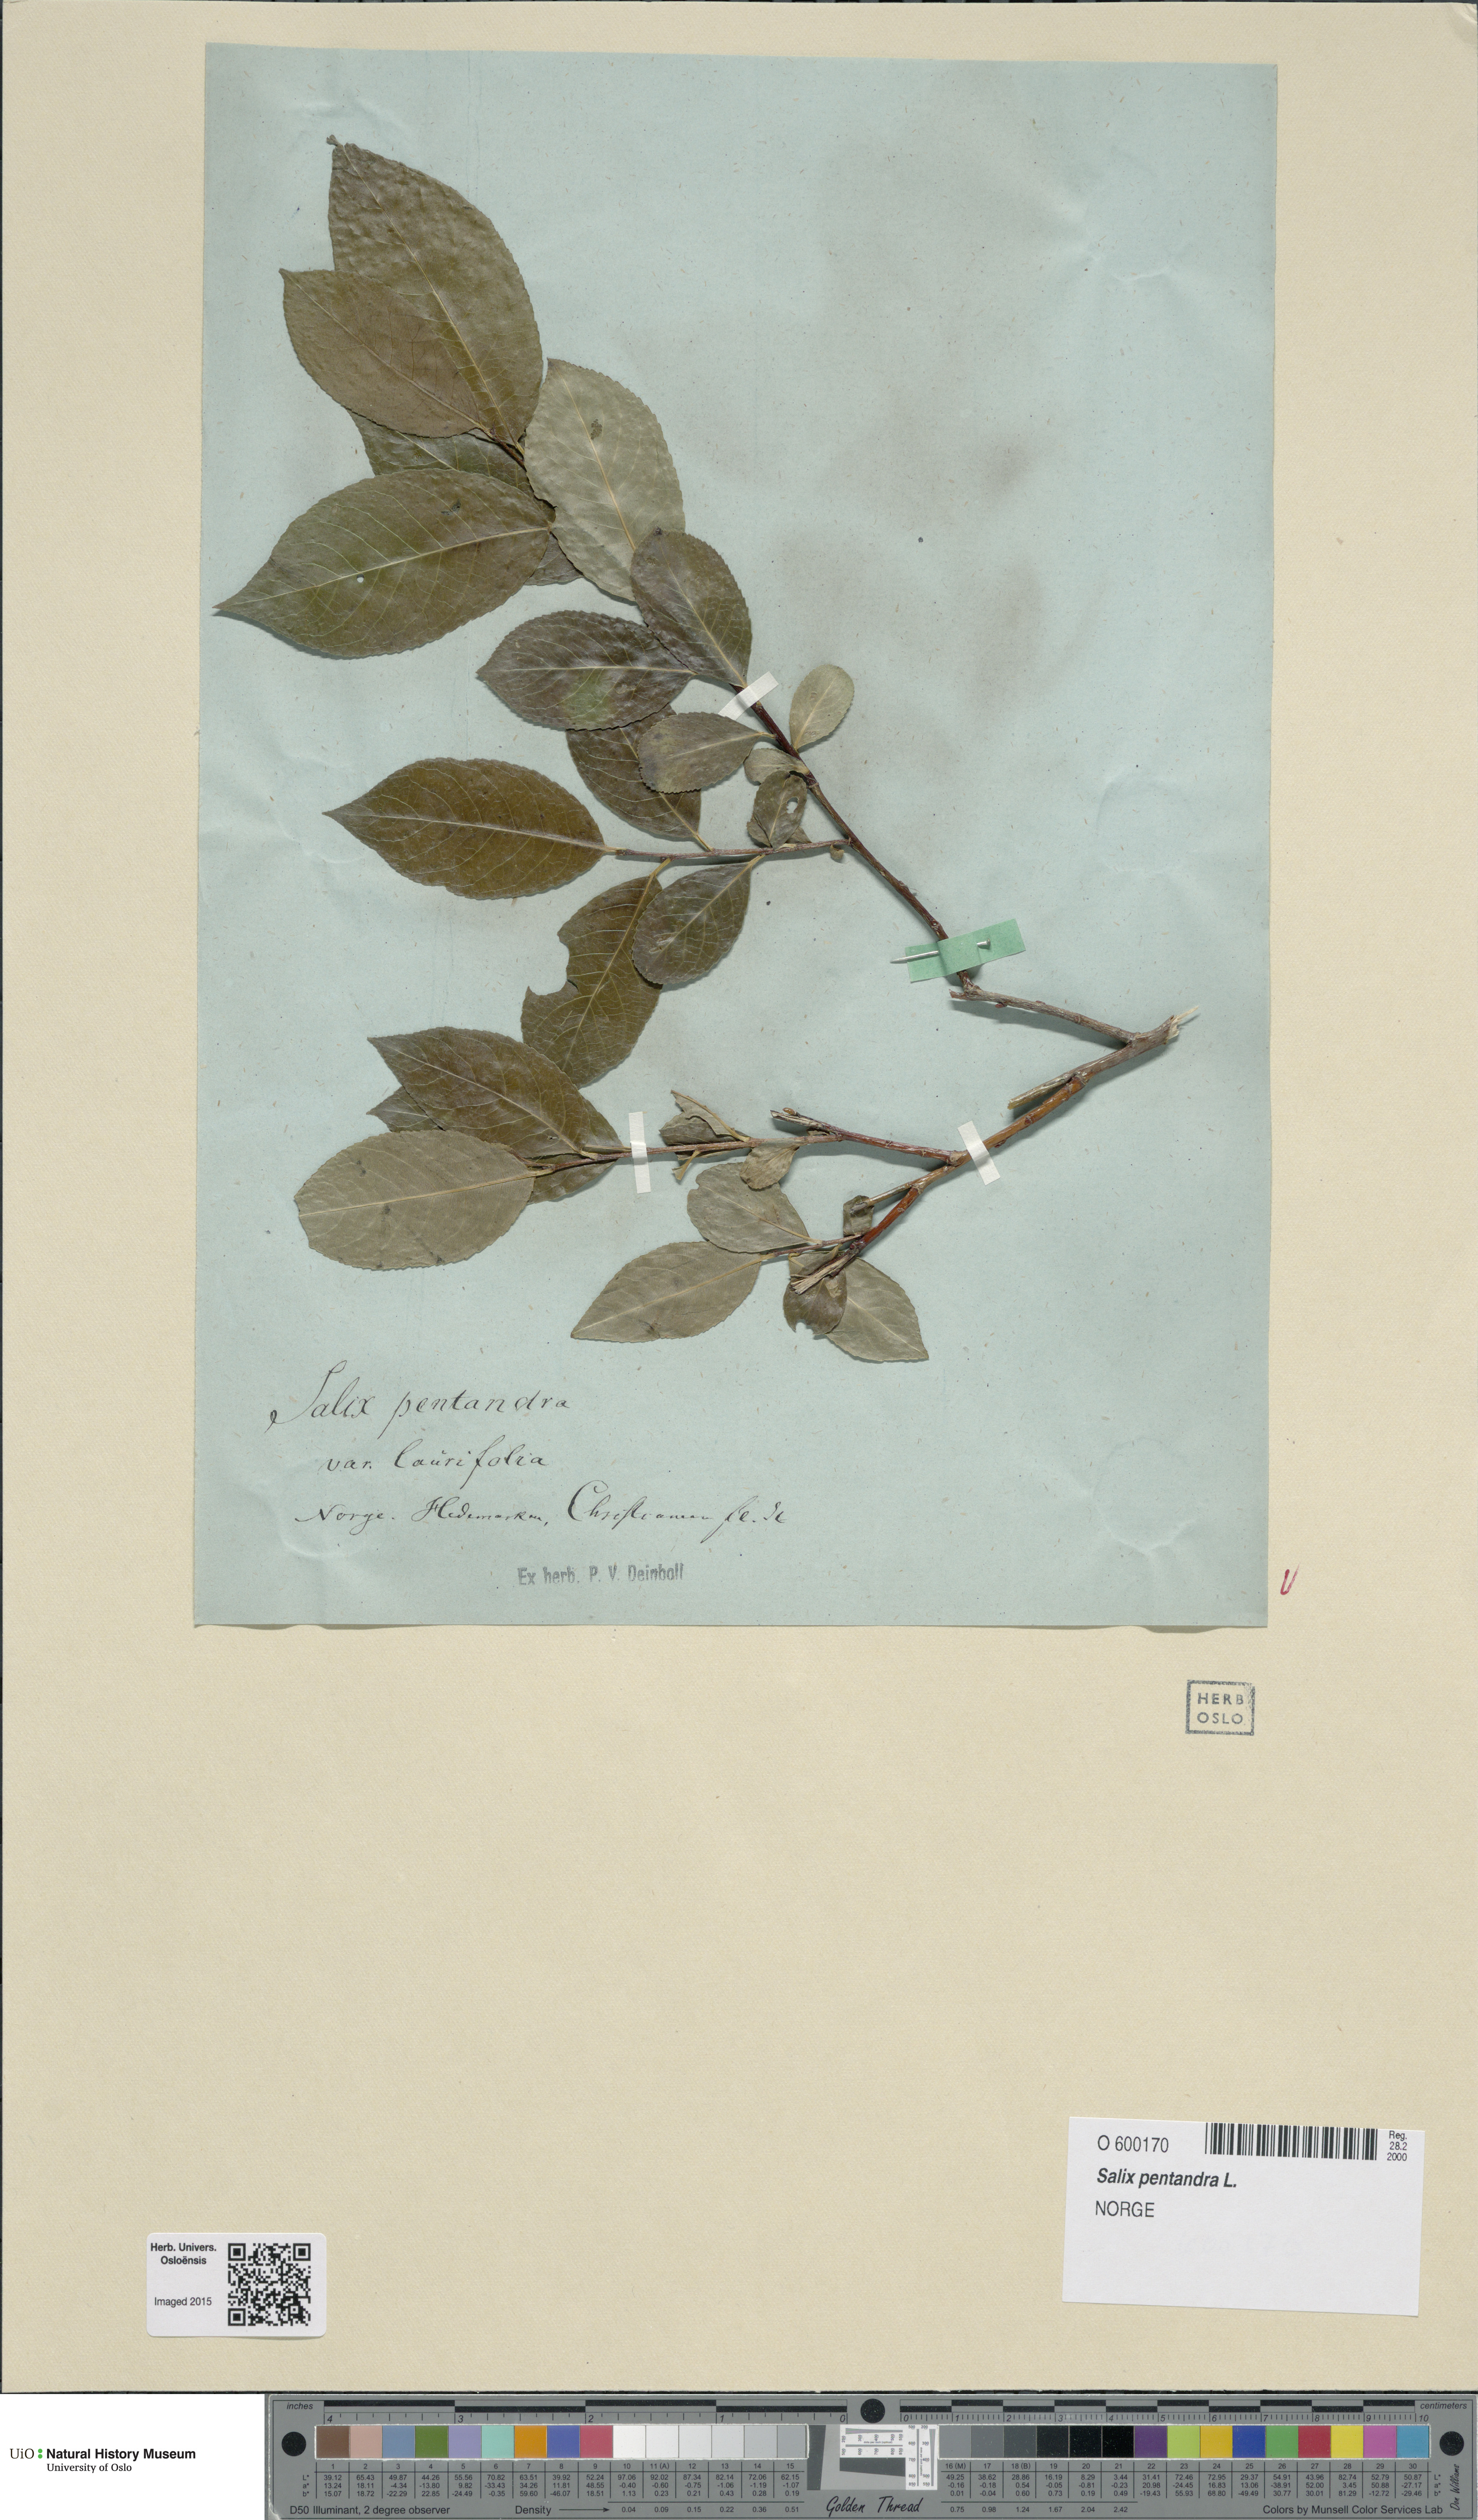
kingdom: Plantae
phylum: Tracheophyta
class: Magnoliopsida
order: Malpighiales
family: Salicaceae
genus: Salix
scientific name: Salix pentandra
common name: Bay willow
